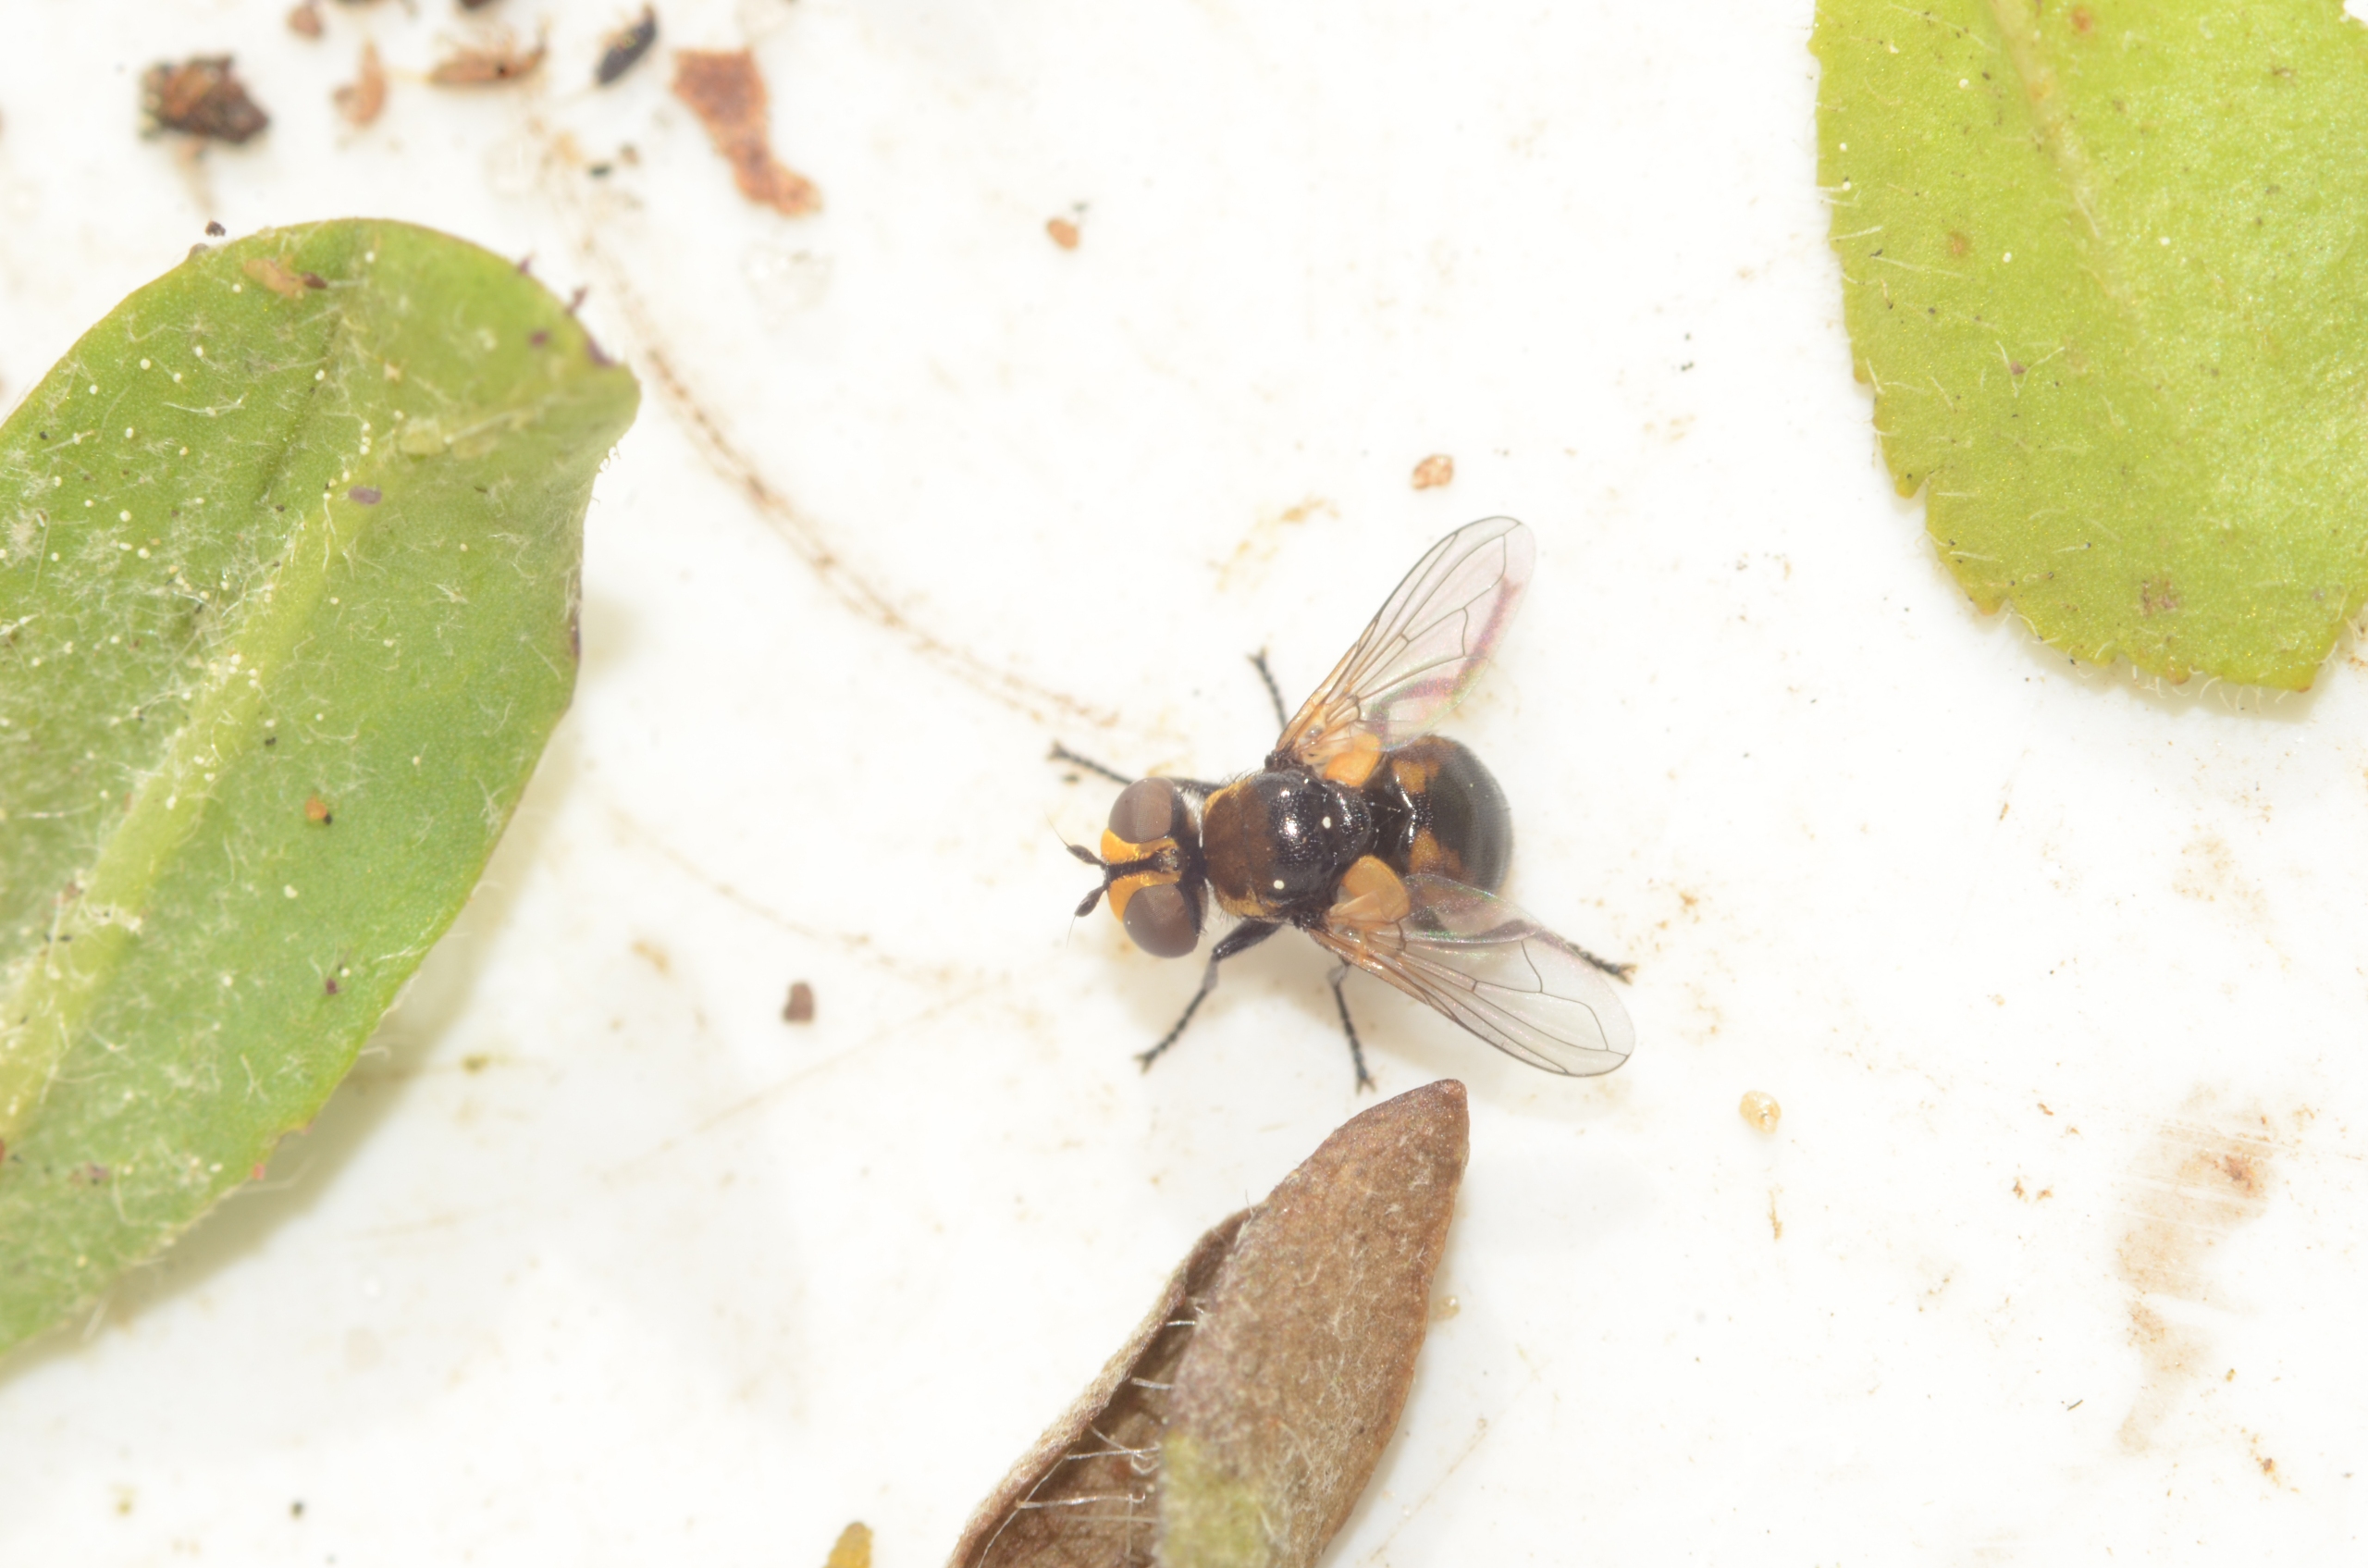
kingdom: Animalia
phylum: Arthropoda
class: Insecta
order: Diptera
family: Tachinidae
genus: Cistogaster
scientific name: Cistogaster globosa
